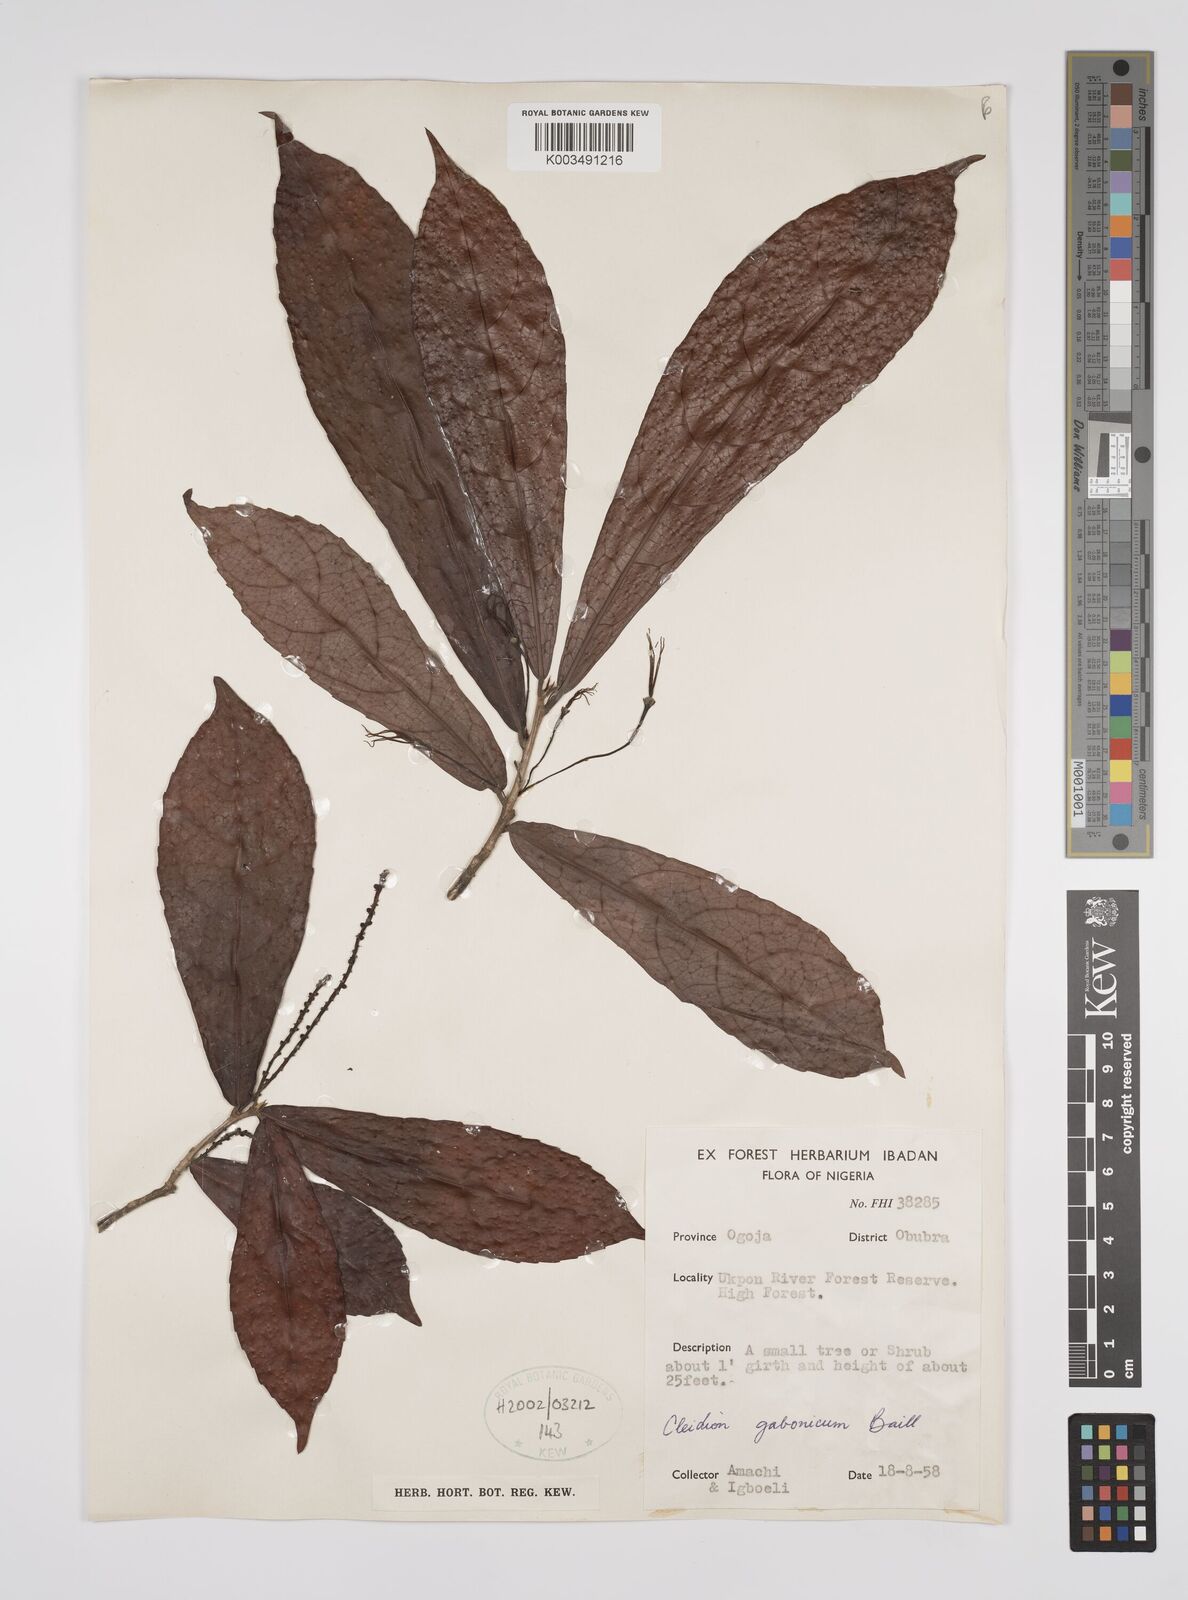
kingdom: Plantae
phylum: Tracheophyta
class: Magnoliopsida
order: Malpighiales
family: Euphorbiaceae
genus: Cleidion
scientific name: Cleidion gabonicum
